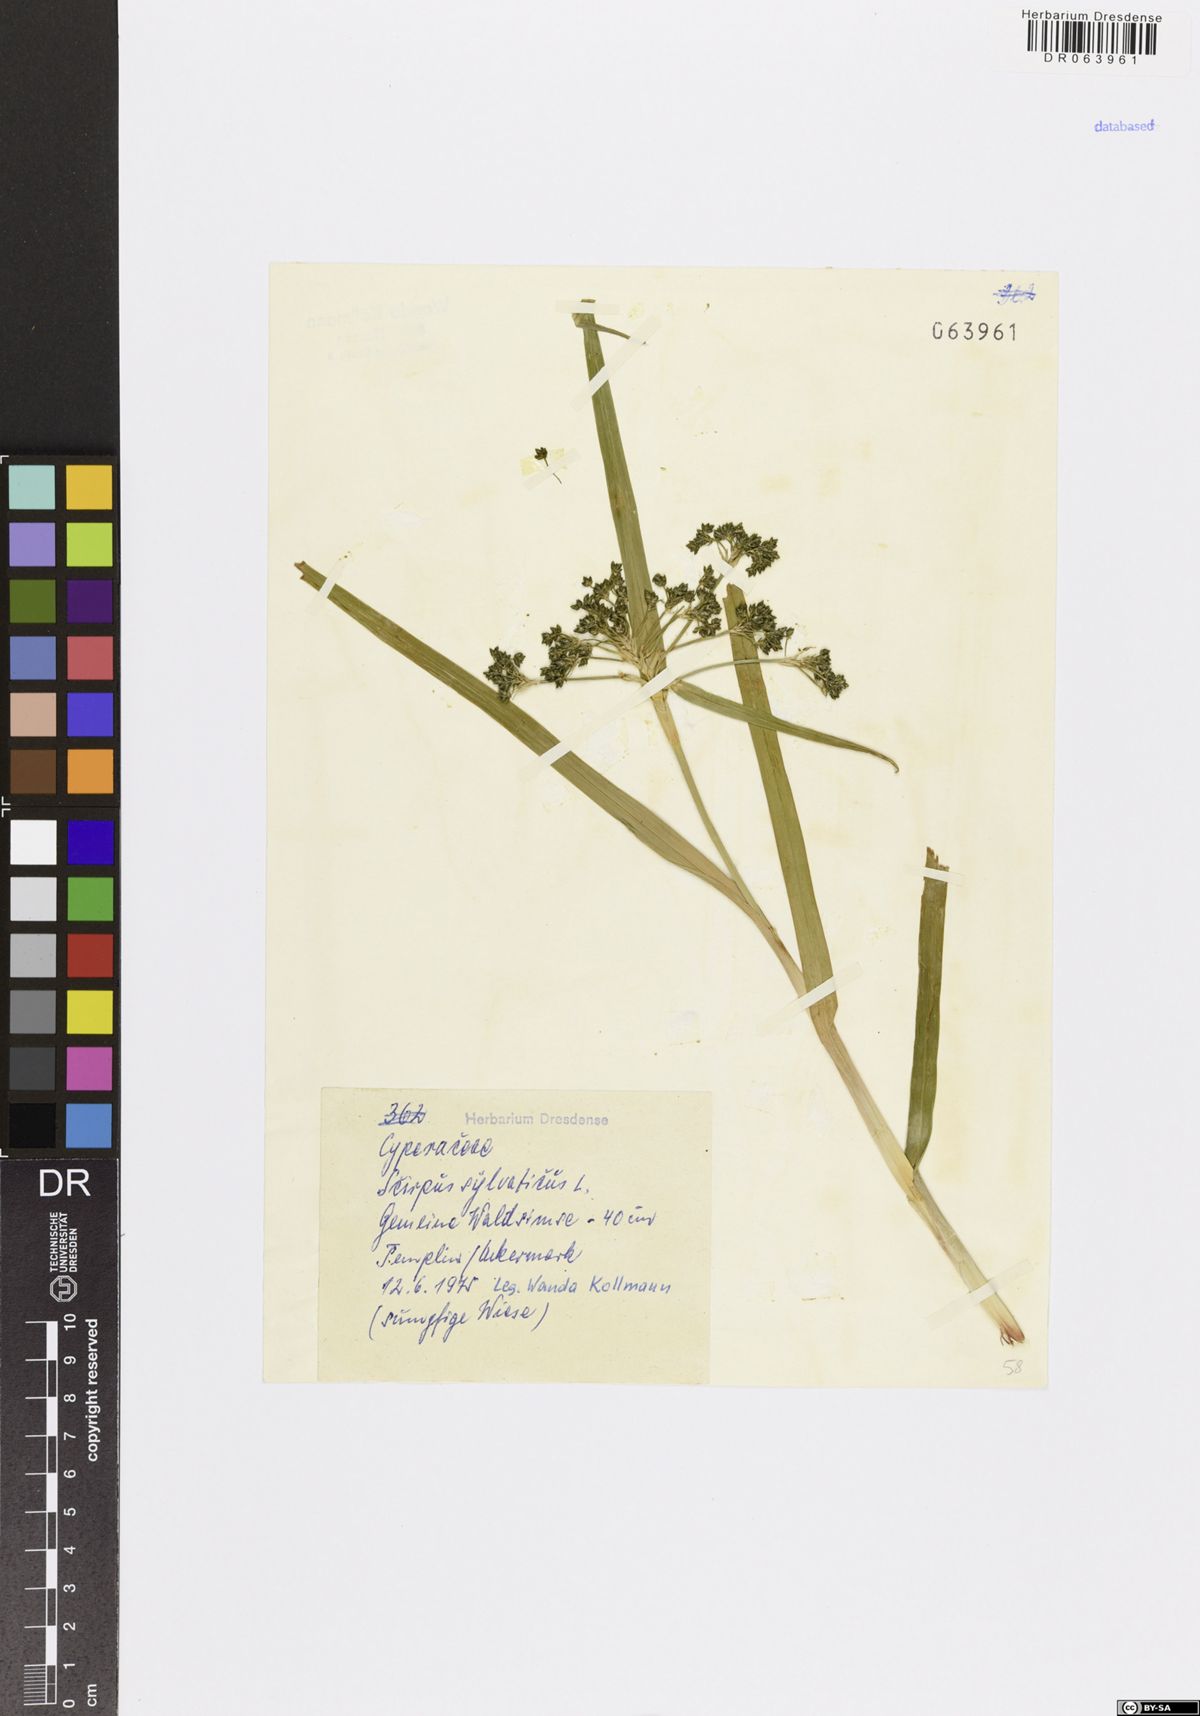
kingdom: Plantae
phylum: Tracheophyta
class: Liliopsida
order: Poales
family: Cyperaceae
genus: Scirpus
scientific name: Scirpus sylvaticus
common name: Wood club-rush
